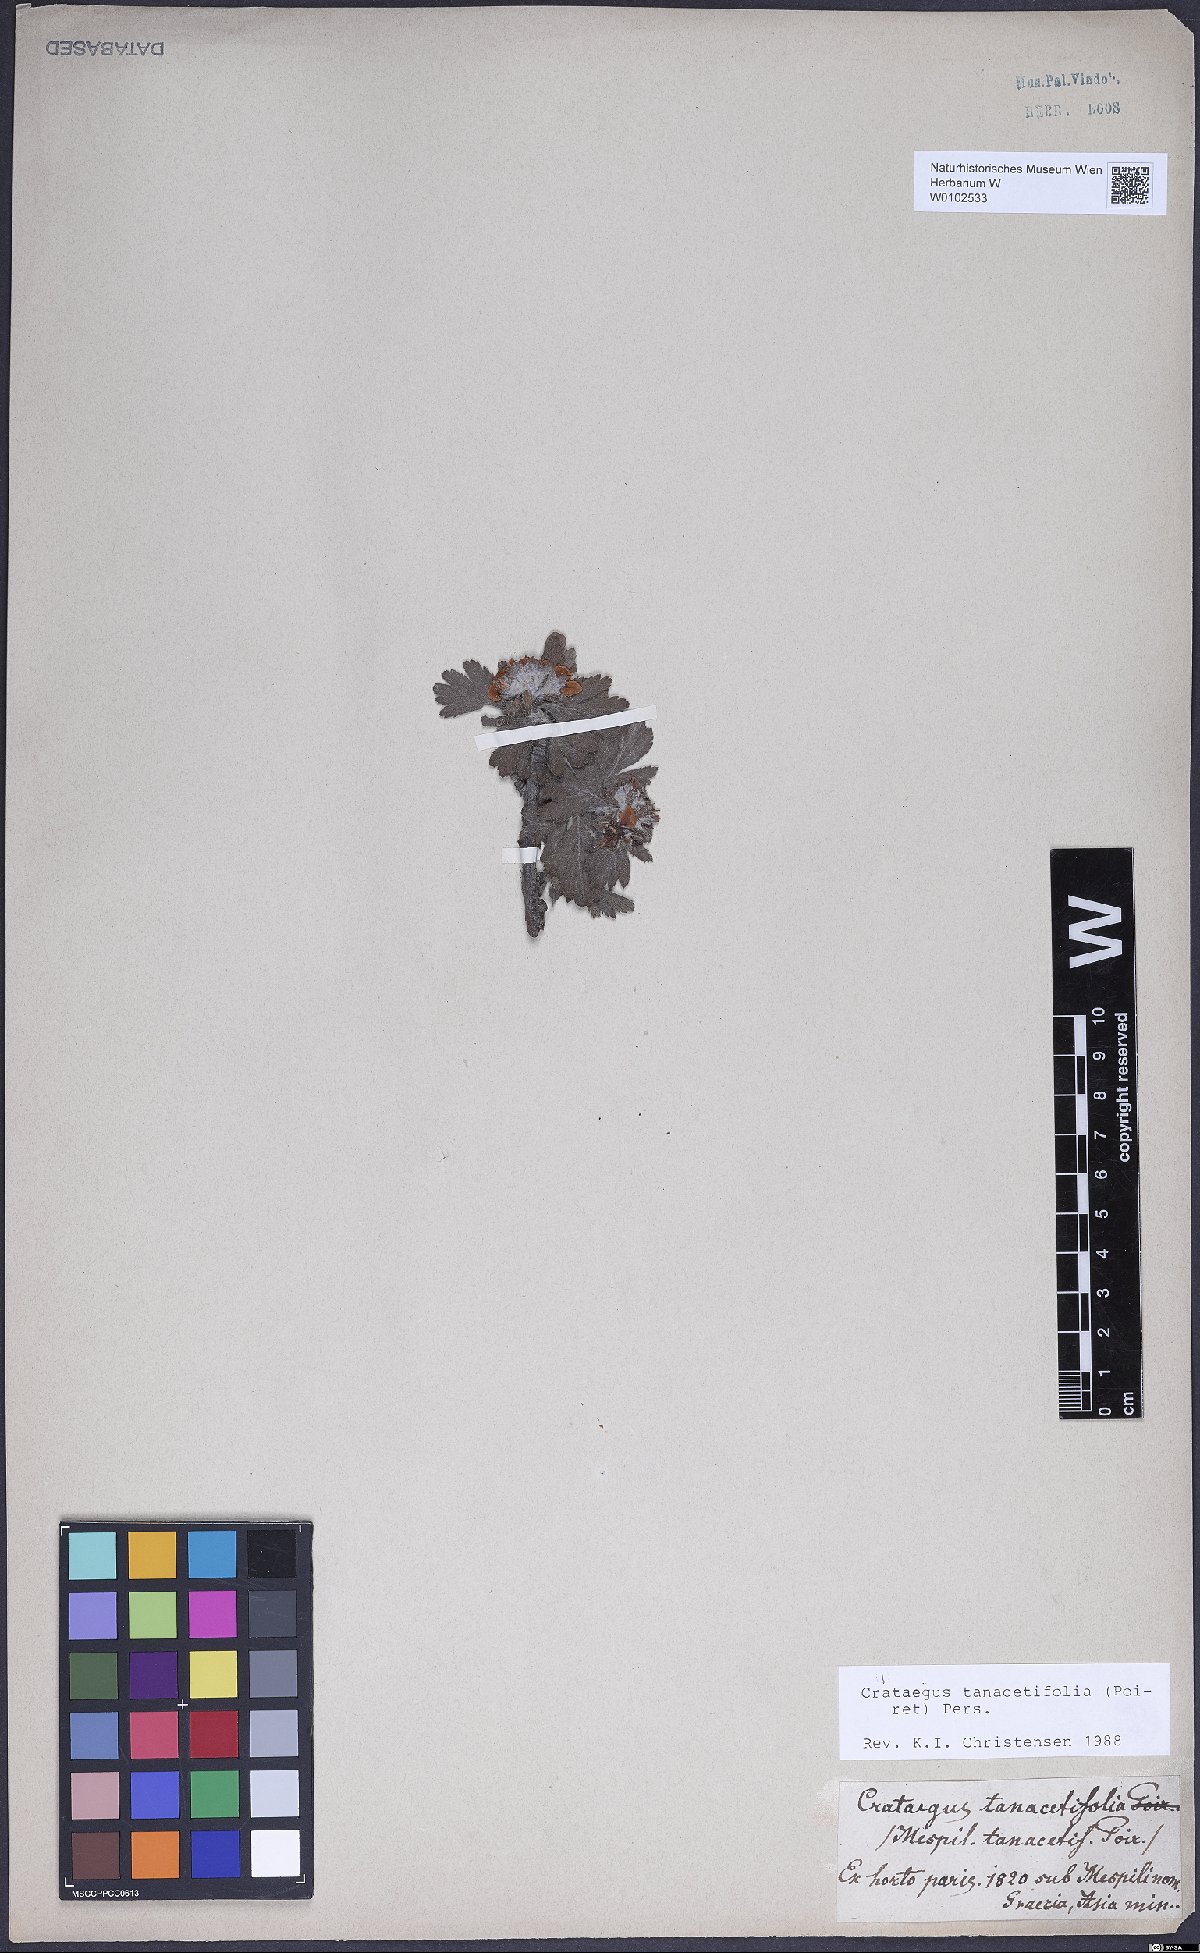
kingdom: Plantae
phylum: Tracheophyta
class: Magnoliopsida
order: Rosales
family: Rosaceae
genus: Crataegus
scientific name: Crataegus tanacetifolia
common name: Tansy-leaved thorn
